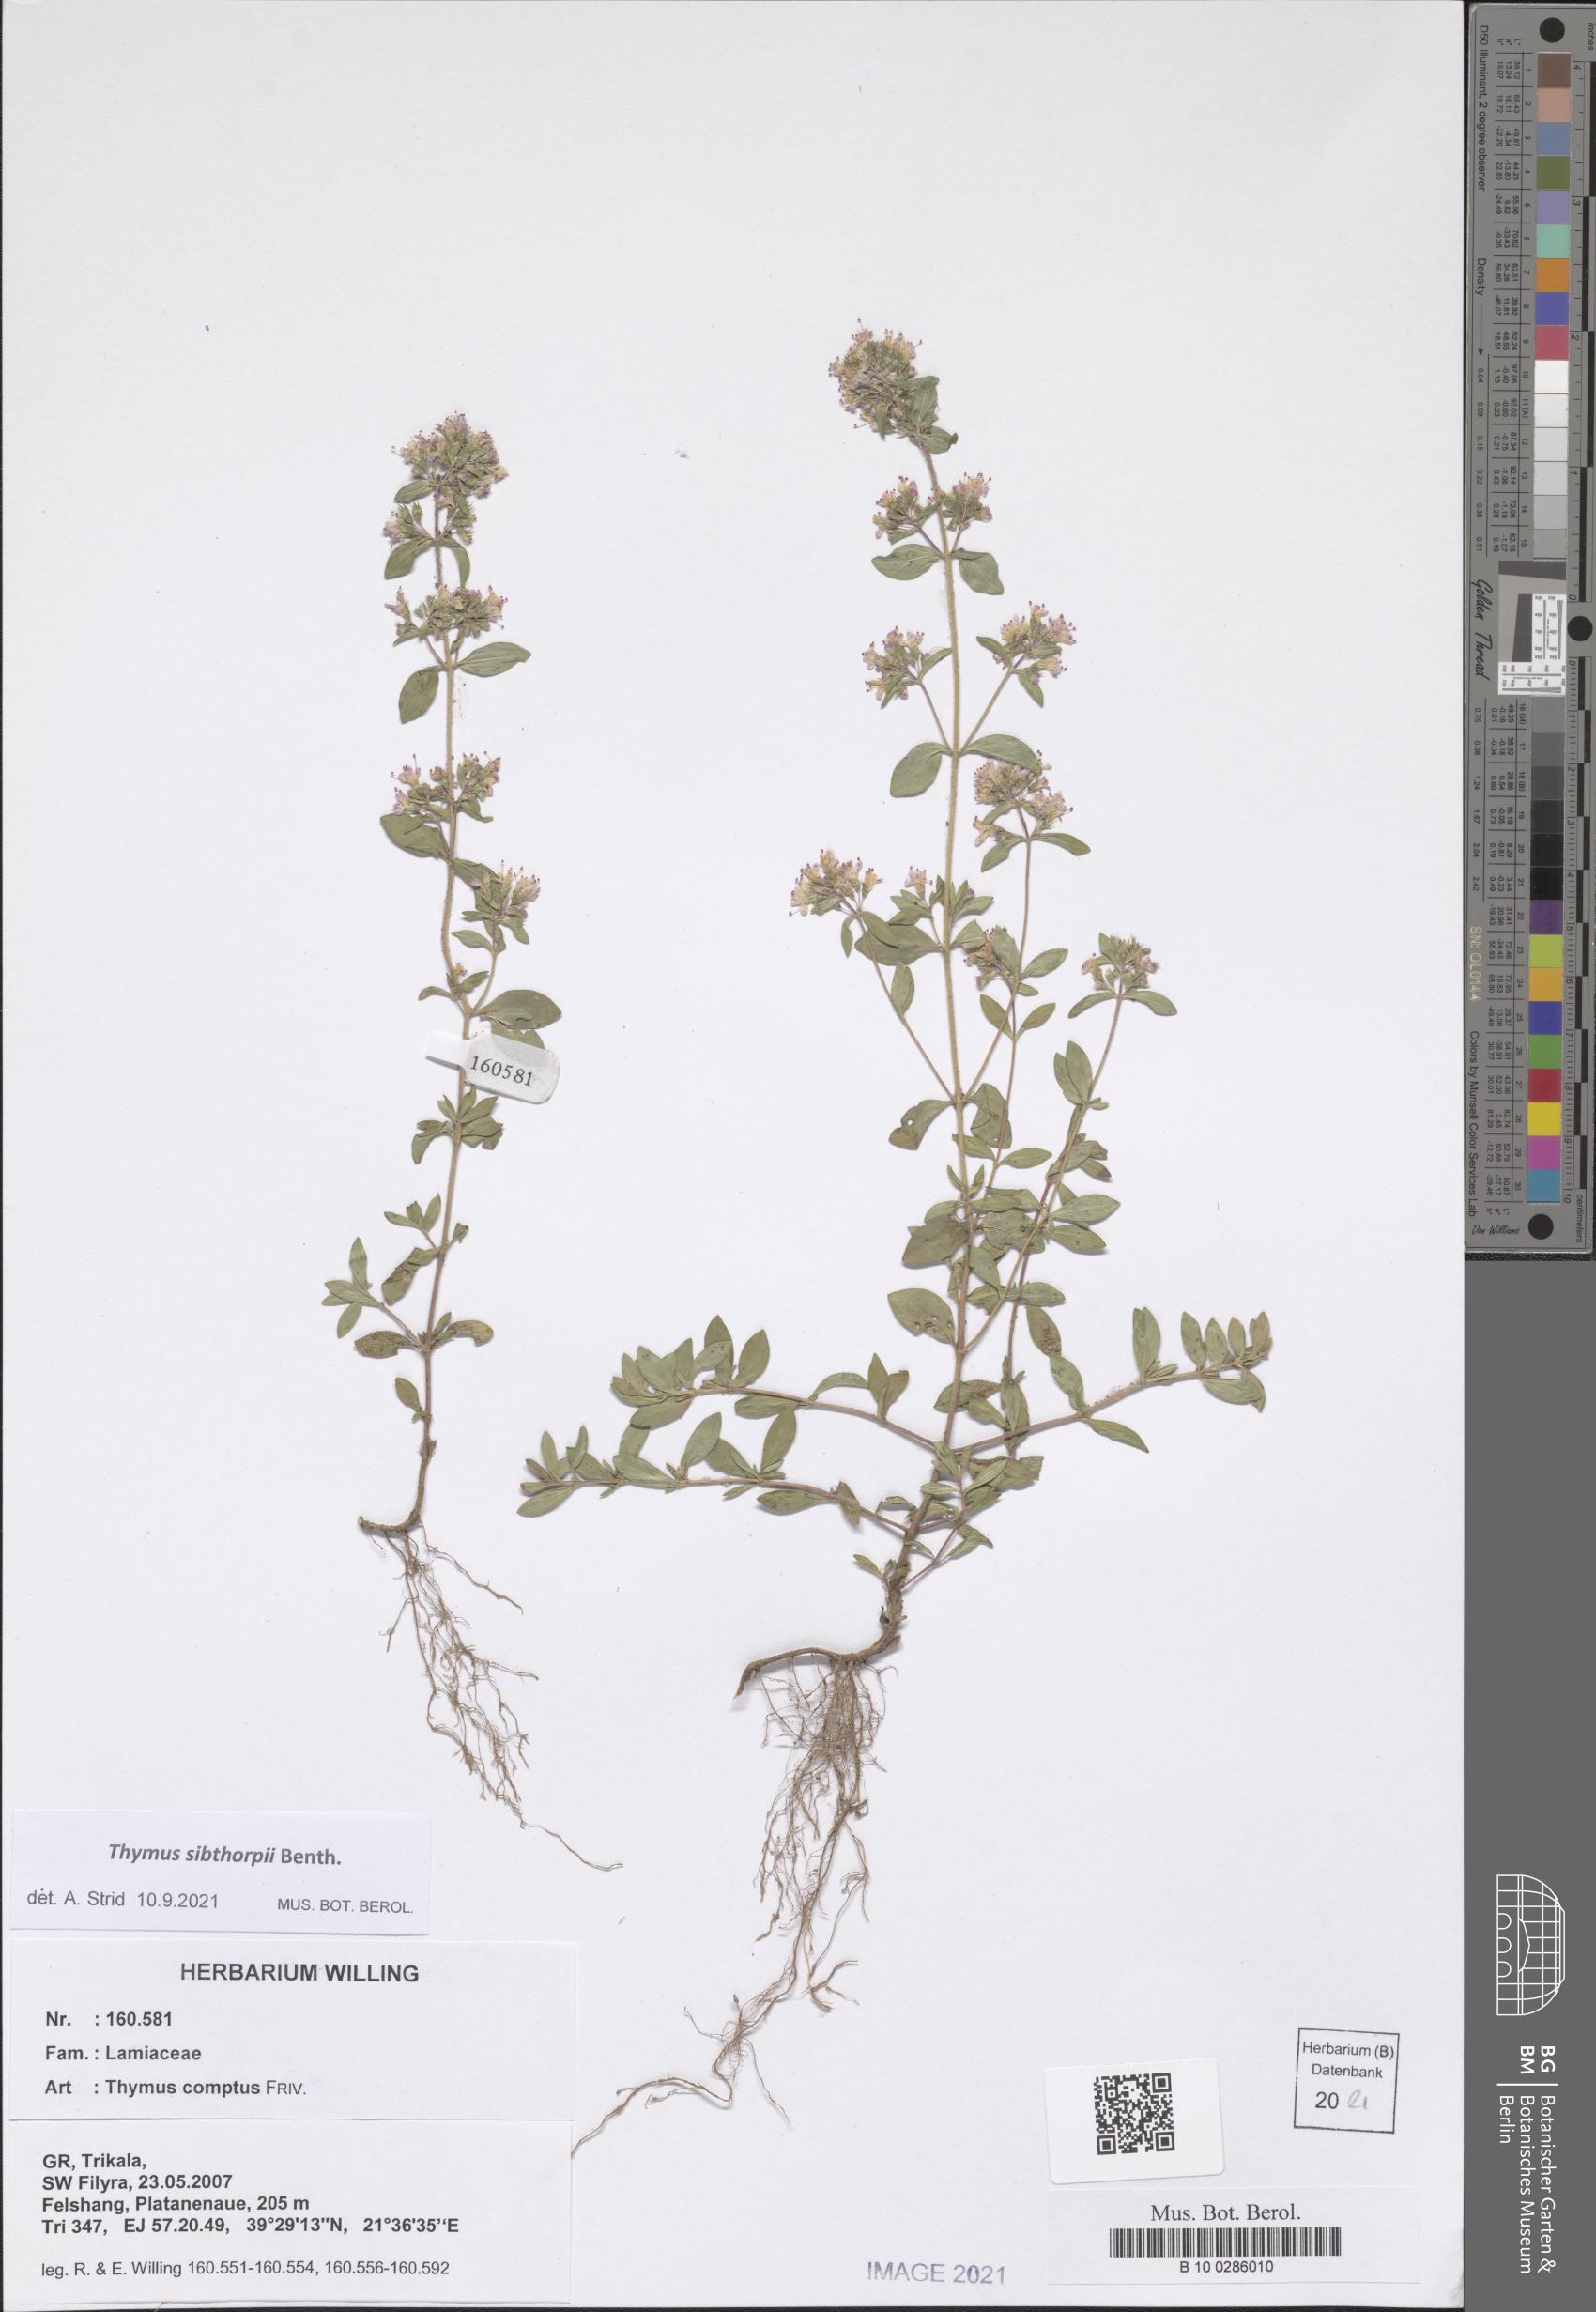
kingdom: Plantae
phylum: Tracheophyta
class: Magnoliopsida
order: Lamiales
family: Lamiaceae
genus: Thymus
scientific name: Thymus sibthorpii
